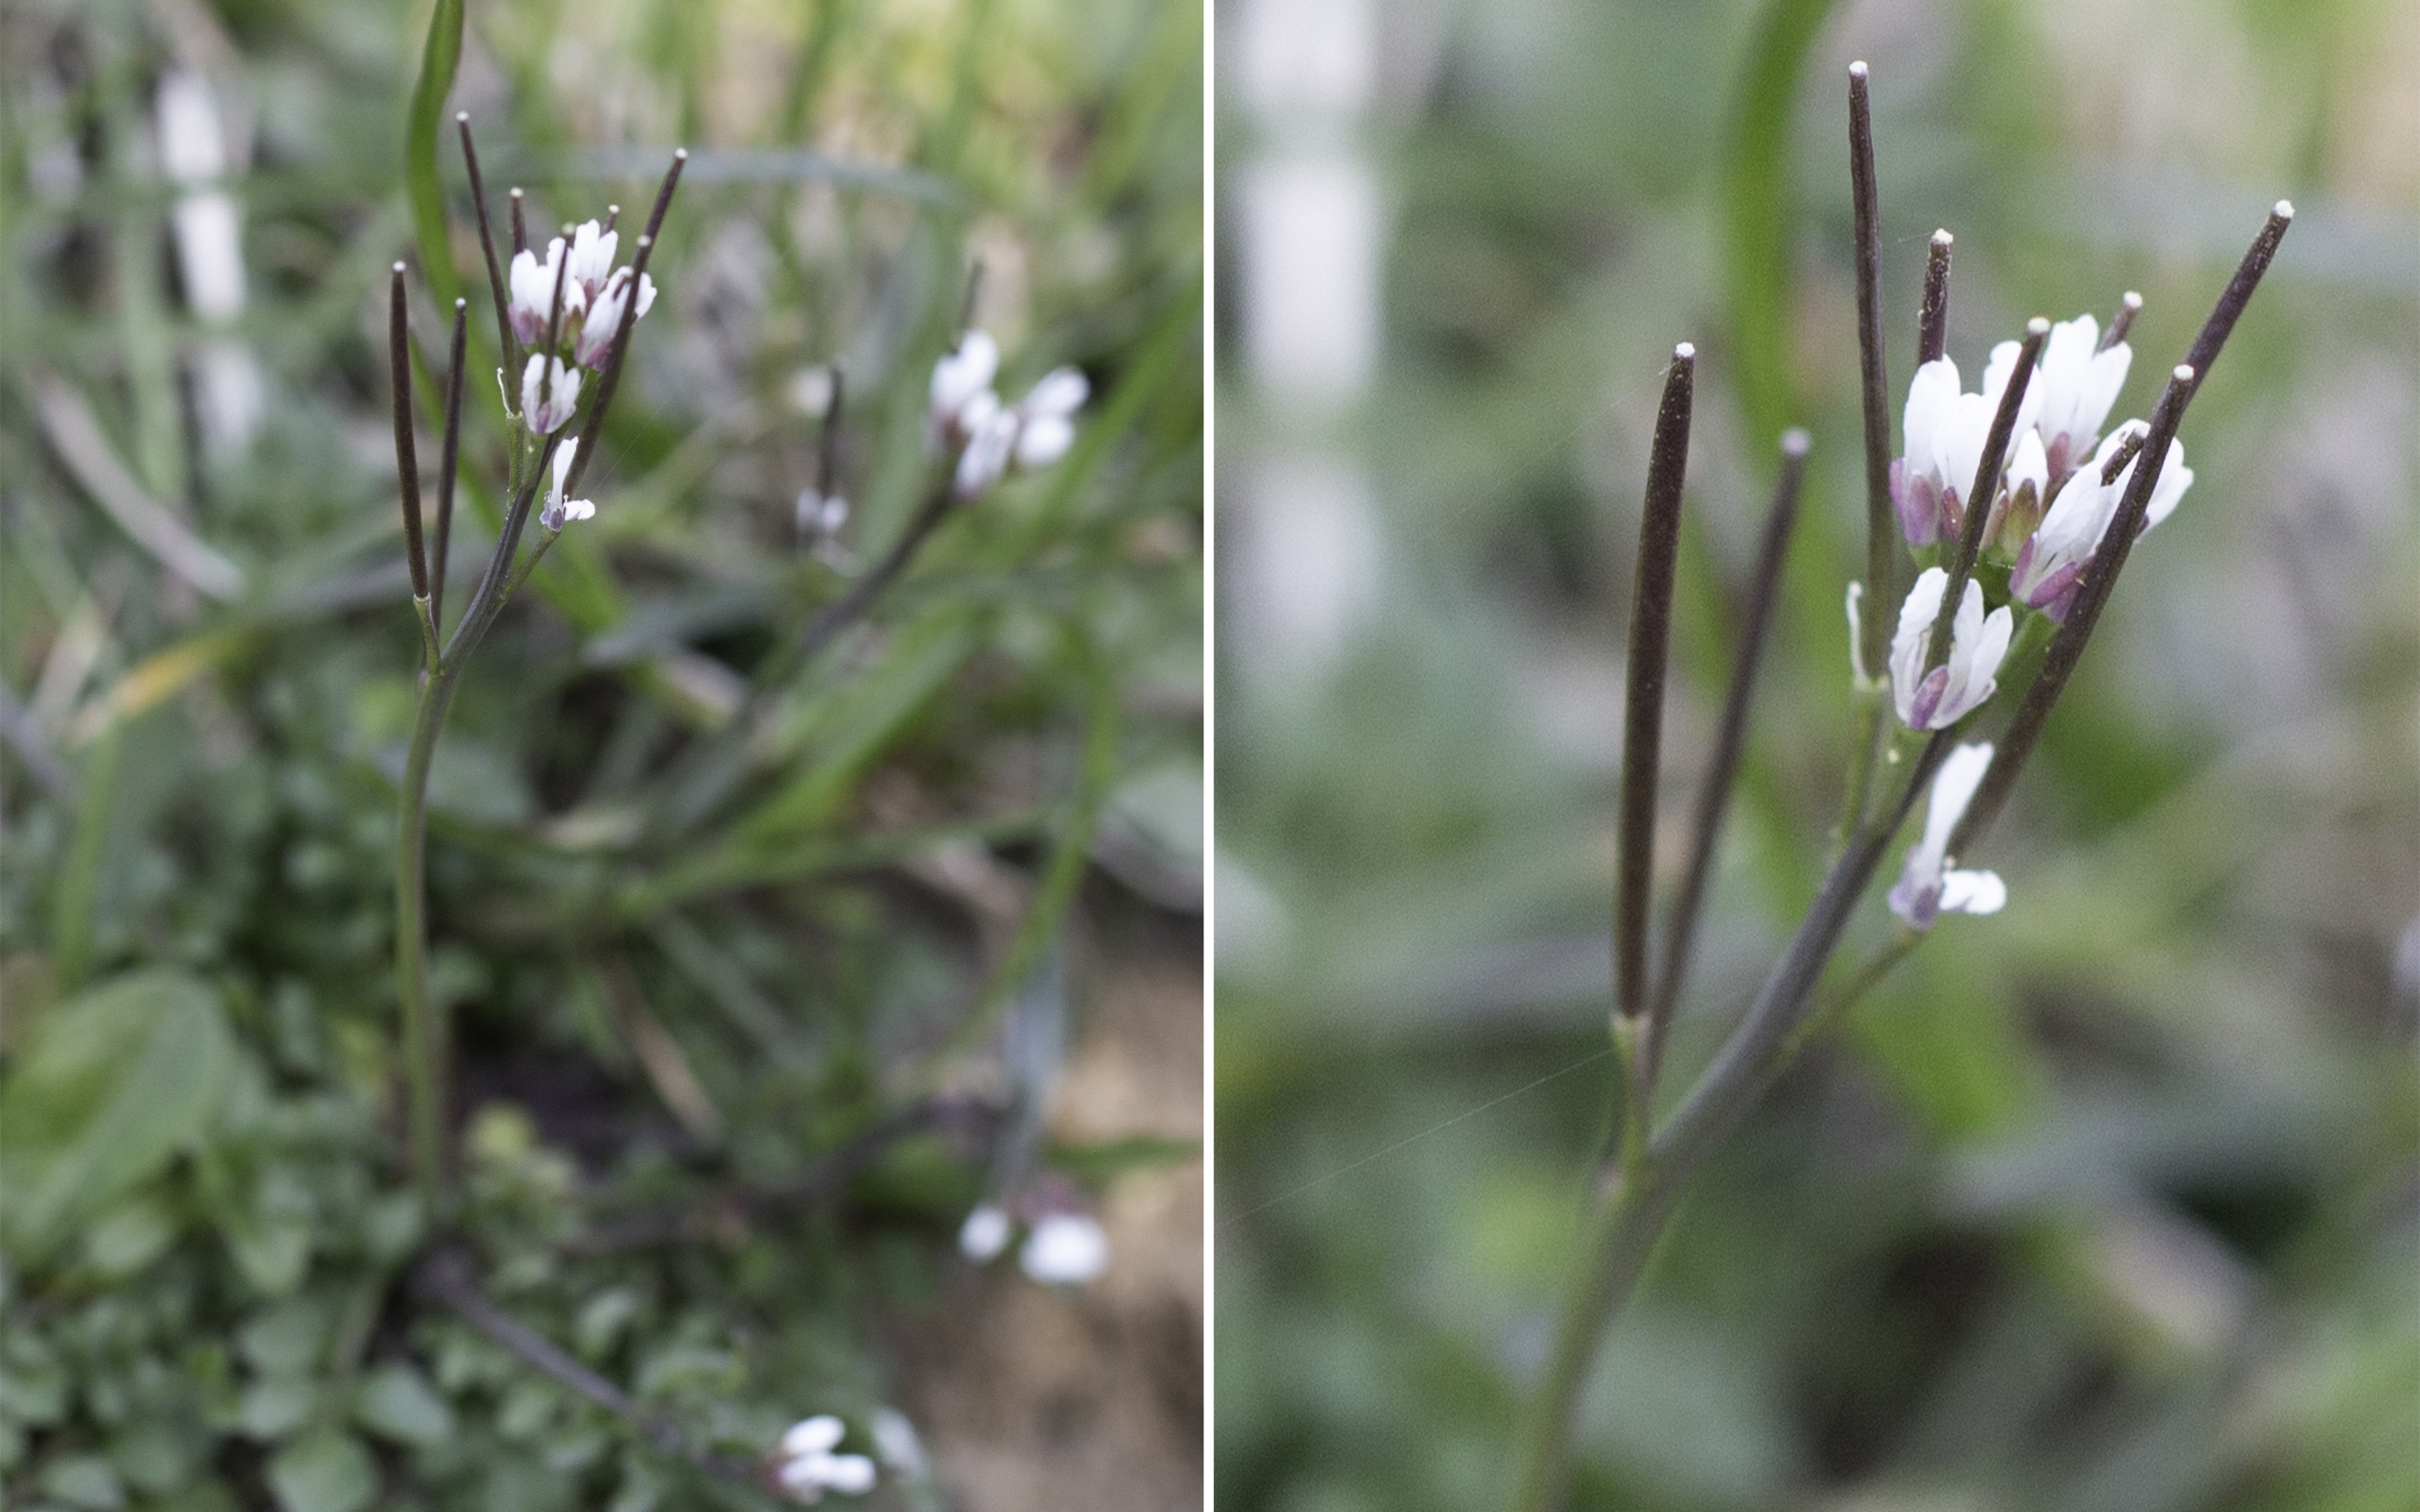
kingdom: Plantae
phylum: Tracheophyta
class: Magnoliopsida
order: Brassicales
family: Brassicaceae
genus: Cardamine
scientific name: Cardamine hirsuta
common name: Roset-springklap
